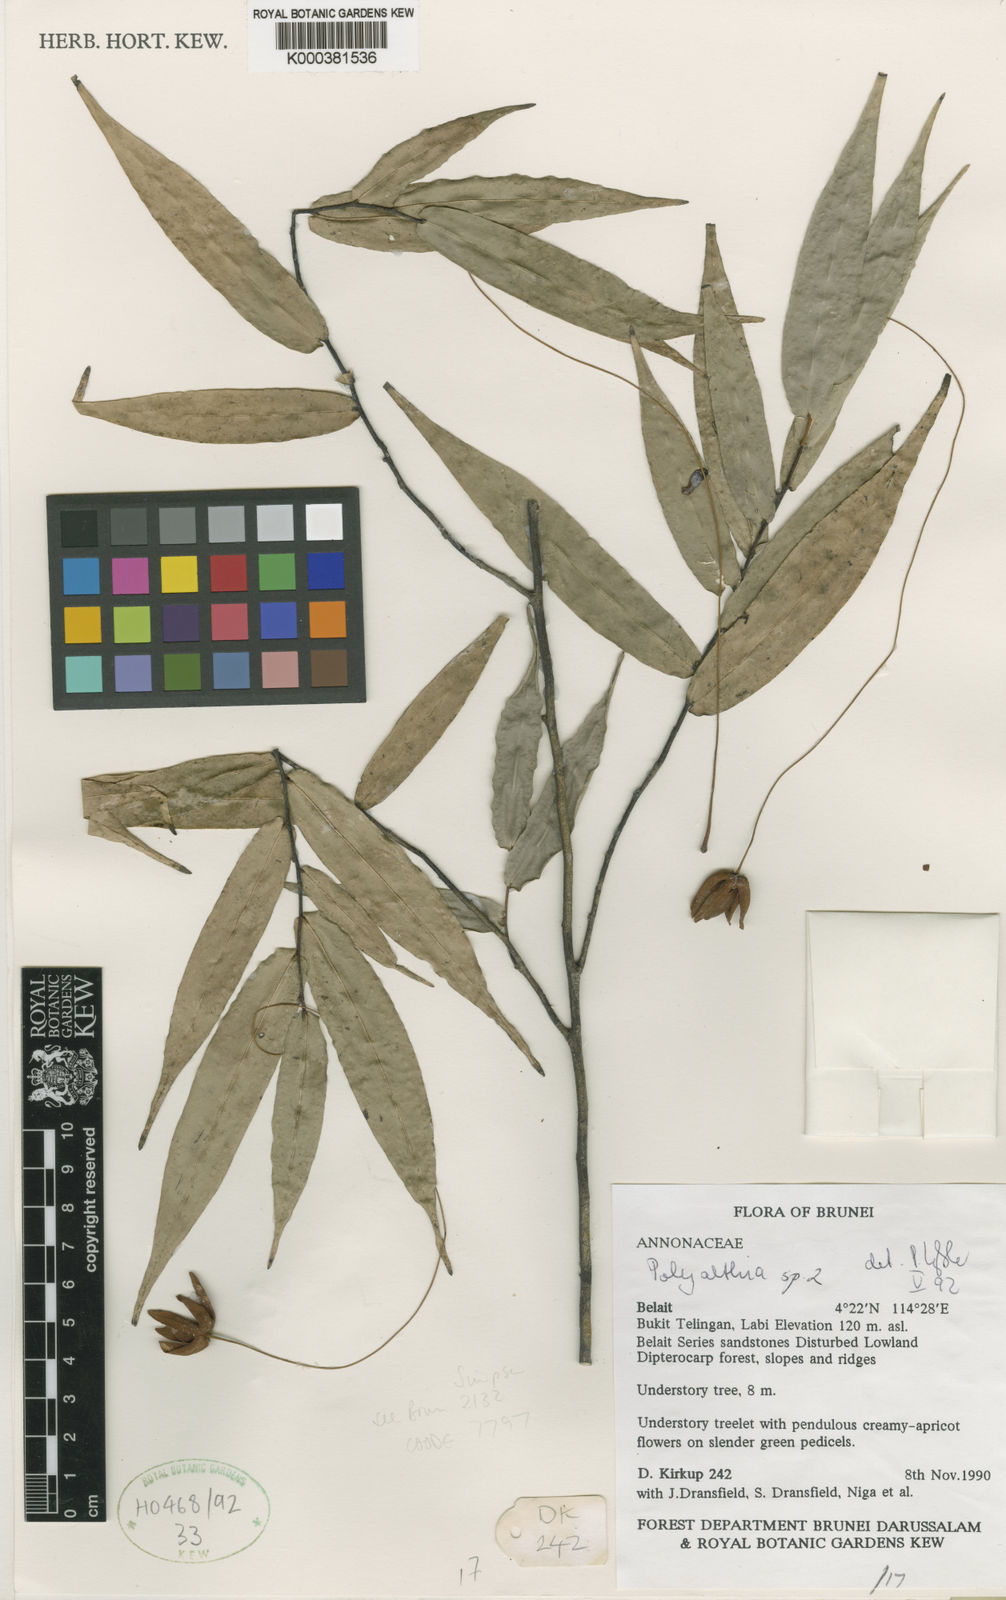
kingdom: Plantae
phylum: Tracheophyta
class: Magnoliopsida
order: Magnoliales
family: Annonaceae
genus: Polyalthia
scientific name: Polyalthia charitopoda
